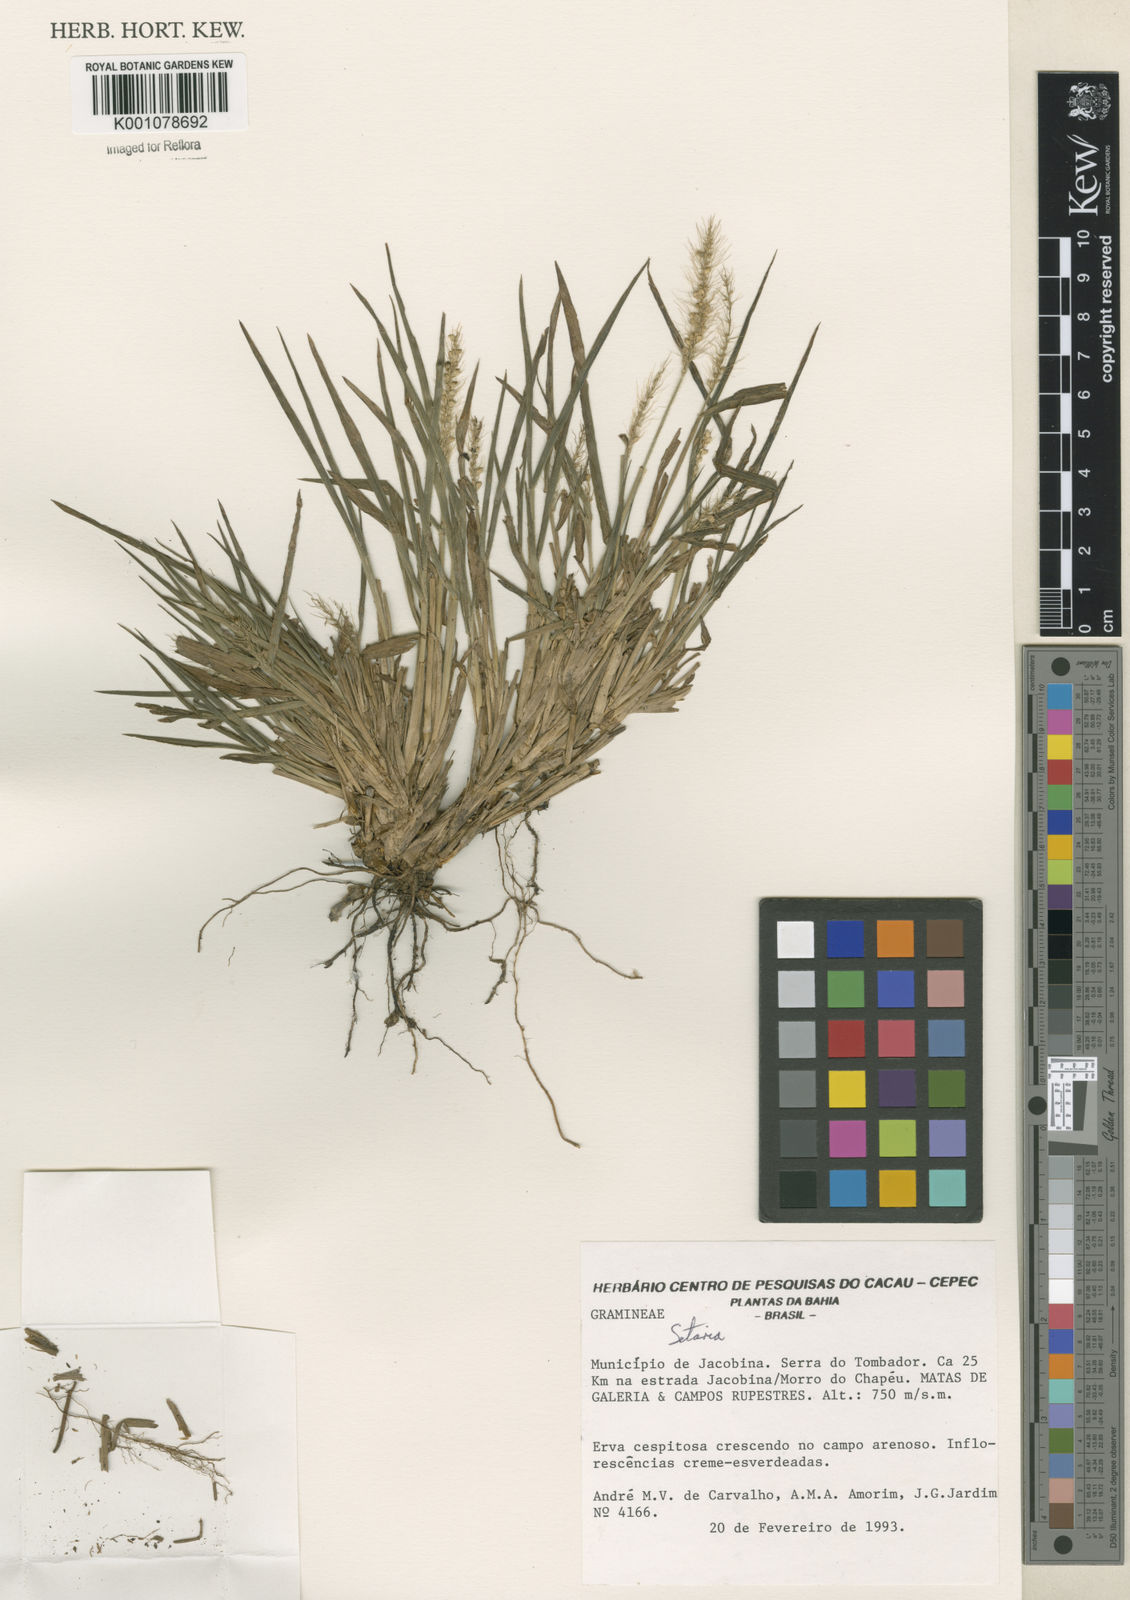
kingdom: Plantae
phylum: Tracheophyta
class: Liliopsida
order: Poales
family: Poaceae
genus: Setaria
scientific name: Setaria
